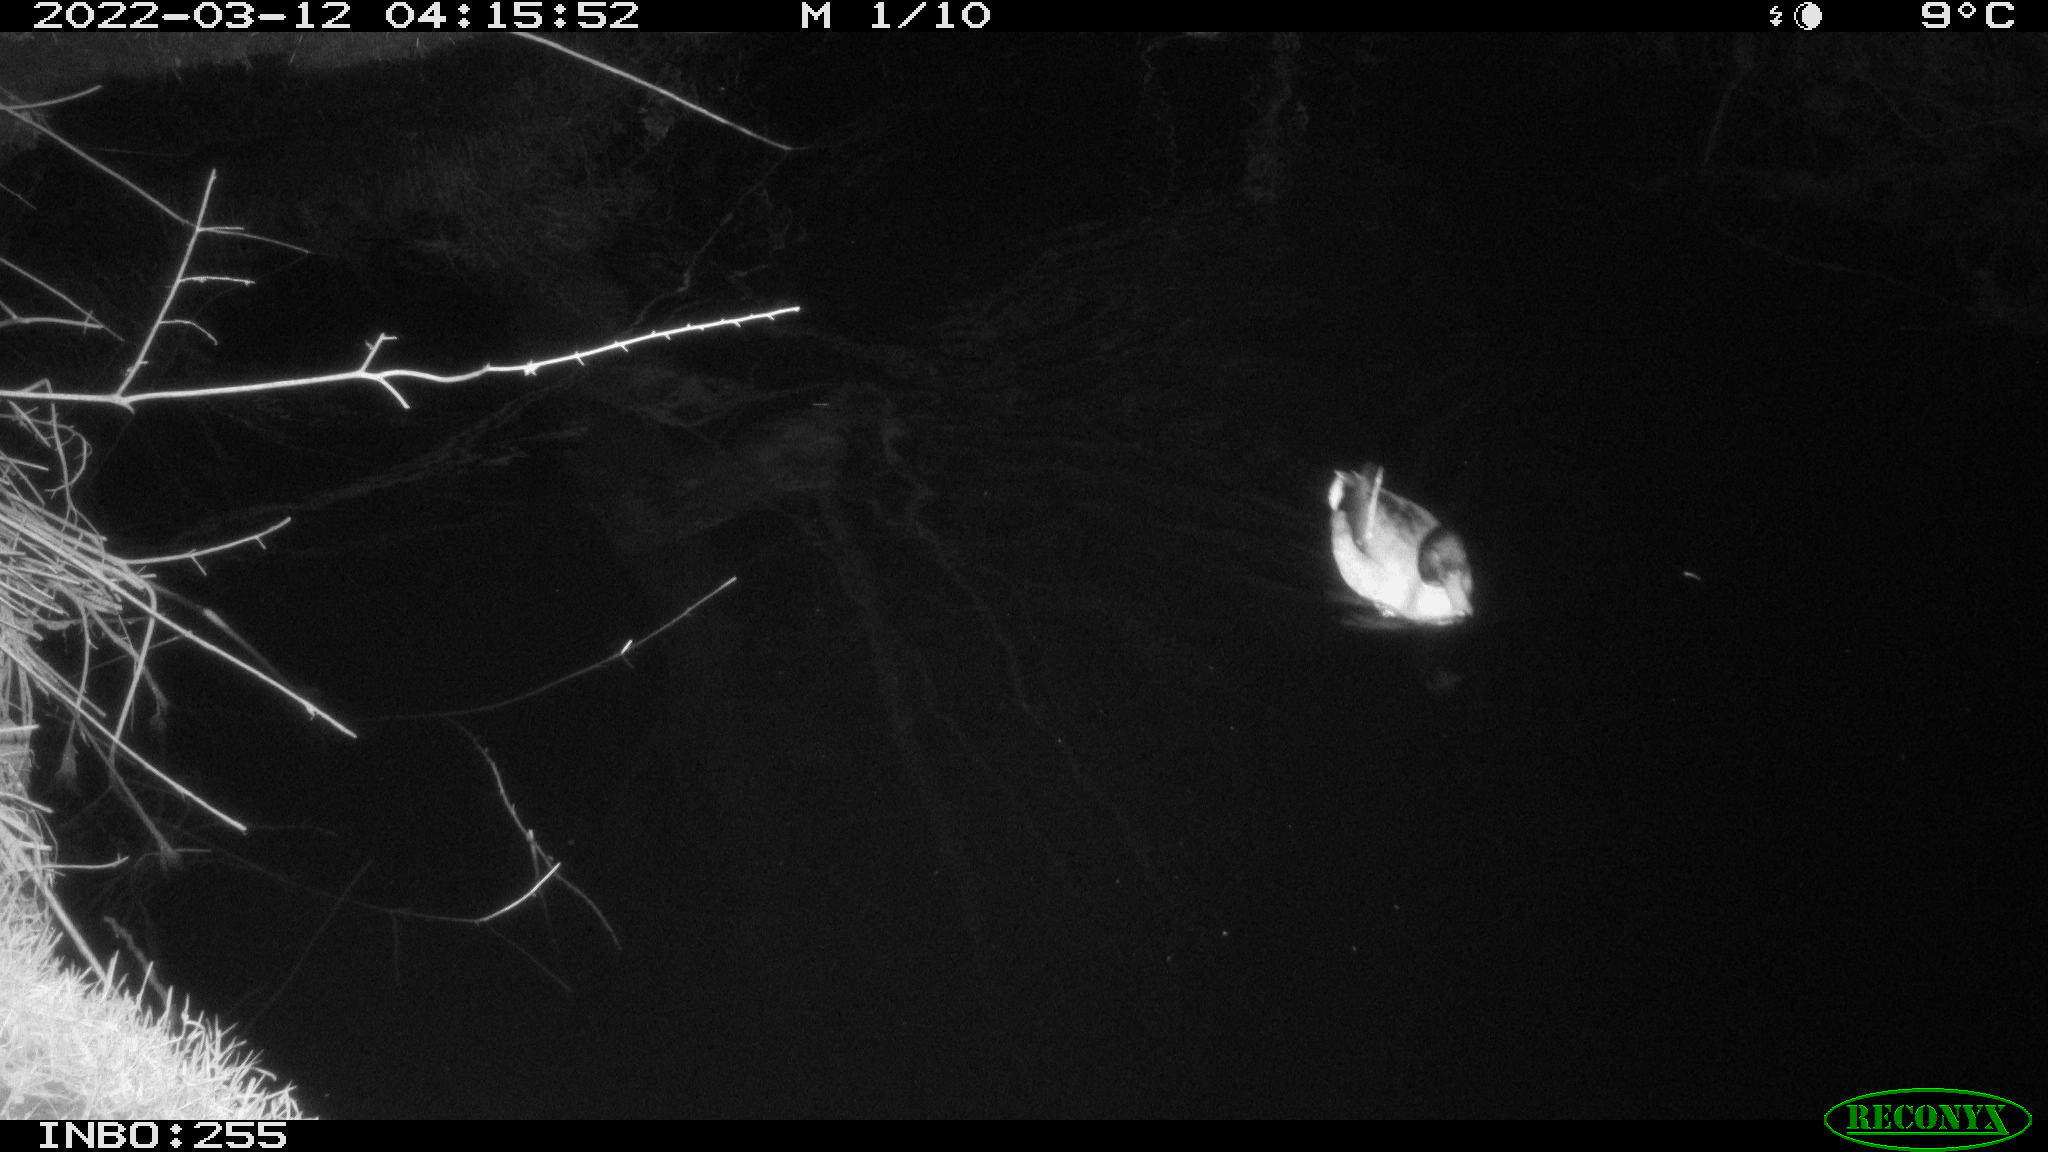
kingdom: Animalia
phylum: Chordata
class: Aves
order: Anseriformes
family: Anatidae
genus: Anas
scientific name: Anas platyrhynchos
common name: Mallard
